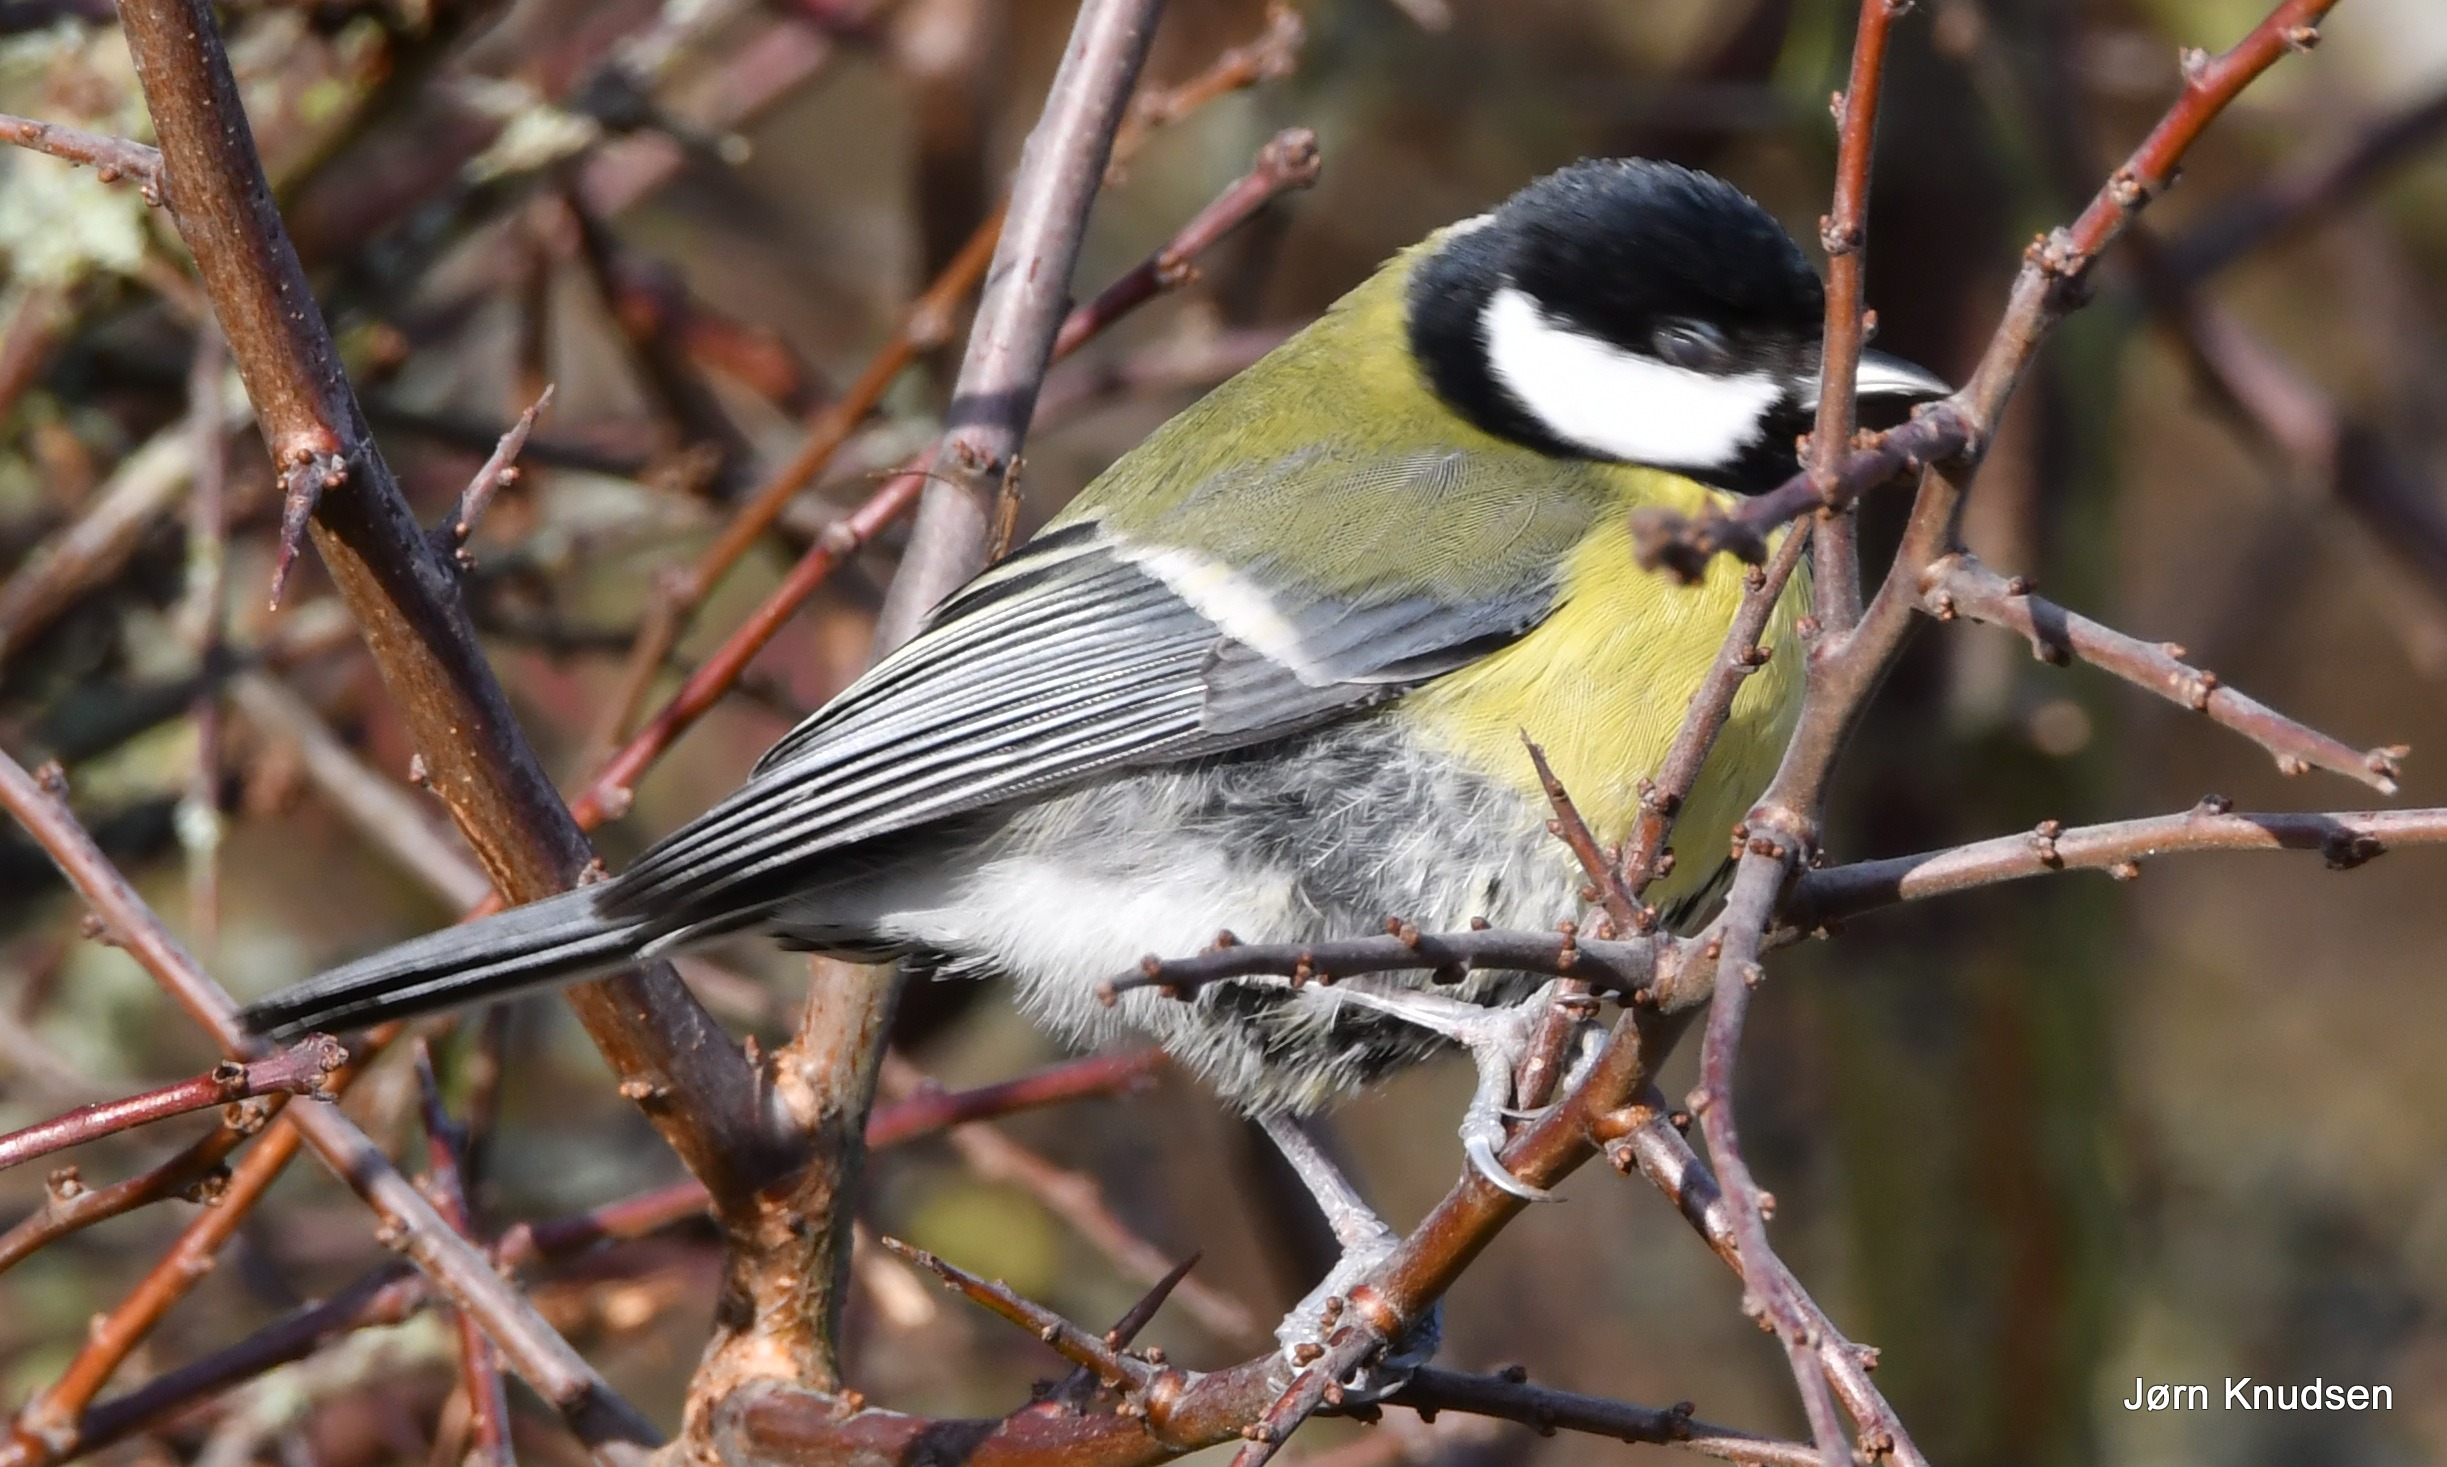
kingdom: Animalia
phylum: Chordata
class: Aves
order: Passeriformes
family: Paridae
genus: Parus
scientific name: Parus major
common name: Musvit
